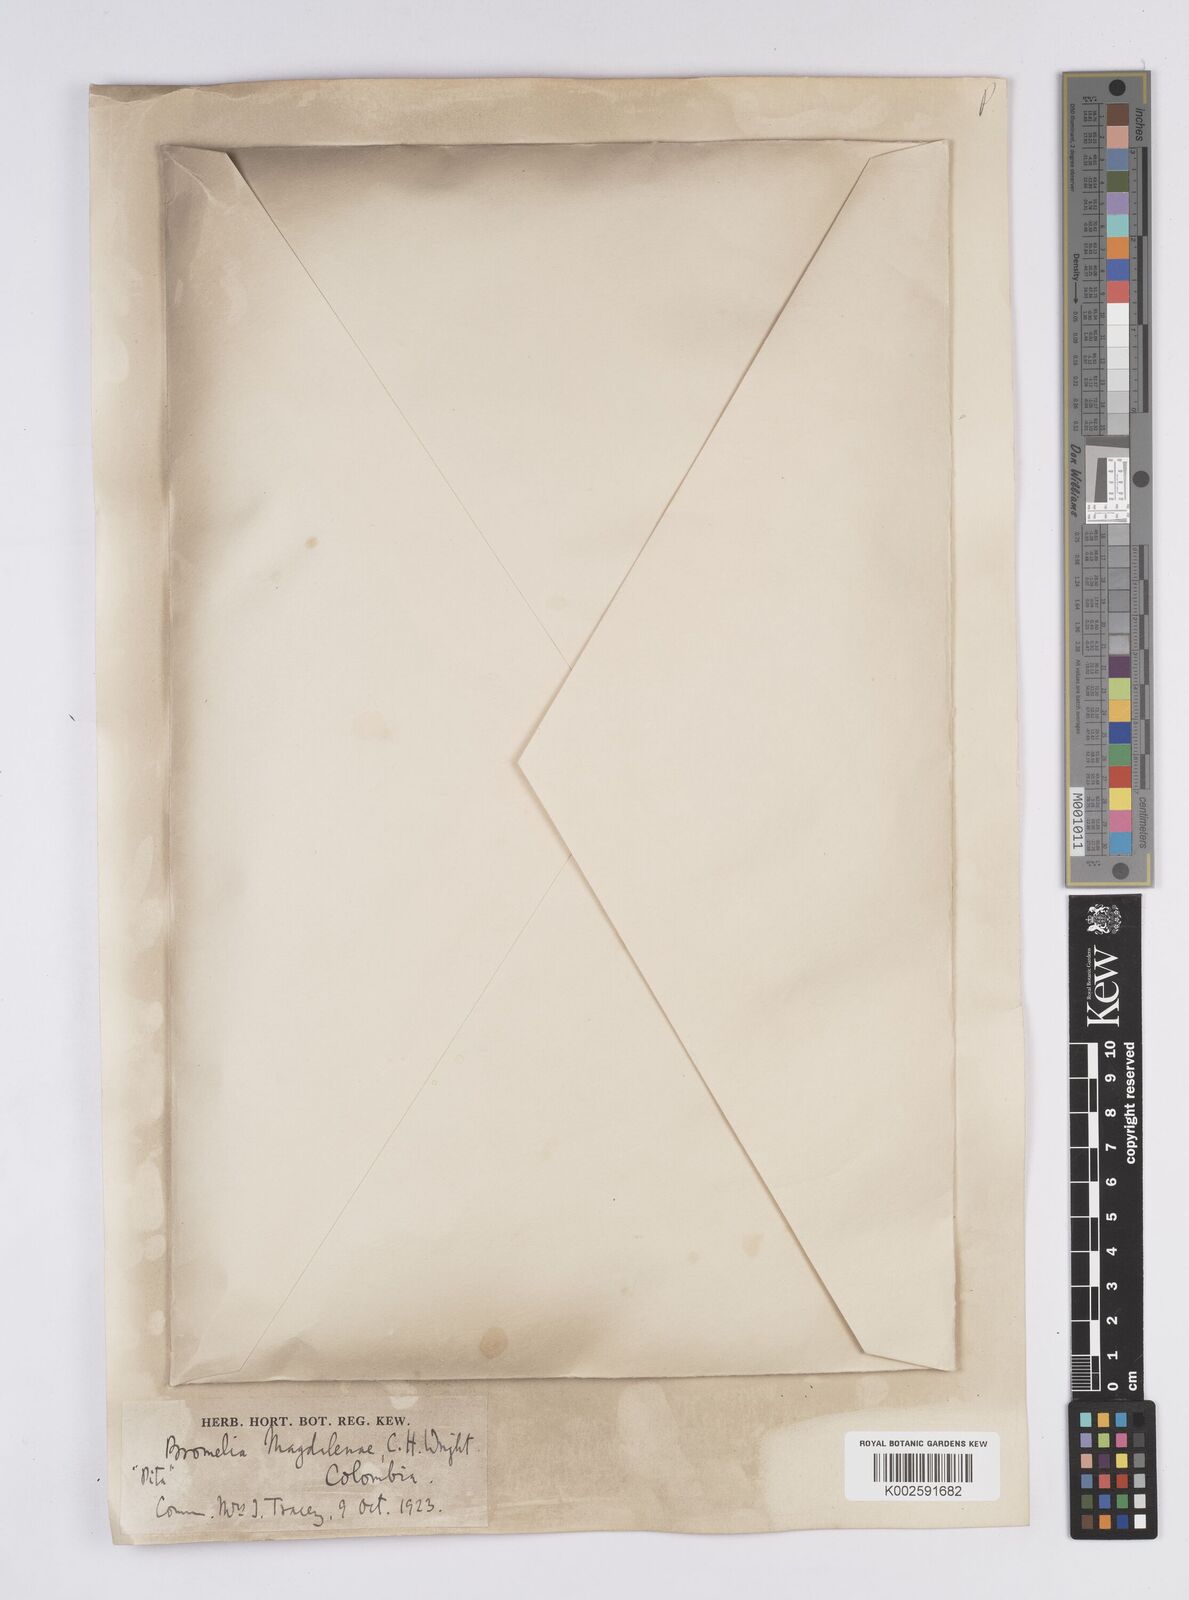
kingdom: Plantae
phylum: Tracheophyta
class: Liliopsida
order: Poales
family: Bromeliaceae
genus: Aechmea
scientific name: Aechmea magdalenae
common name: Arghan
